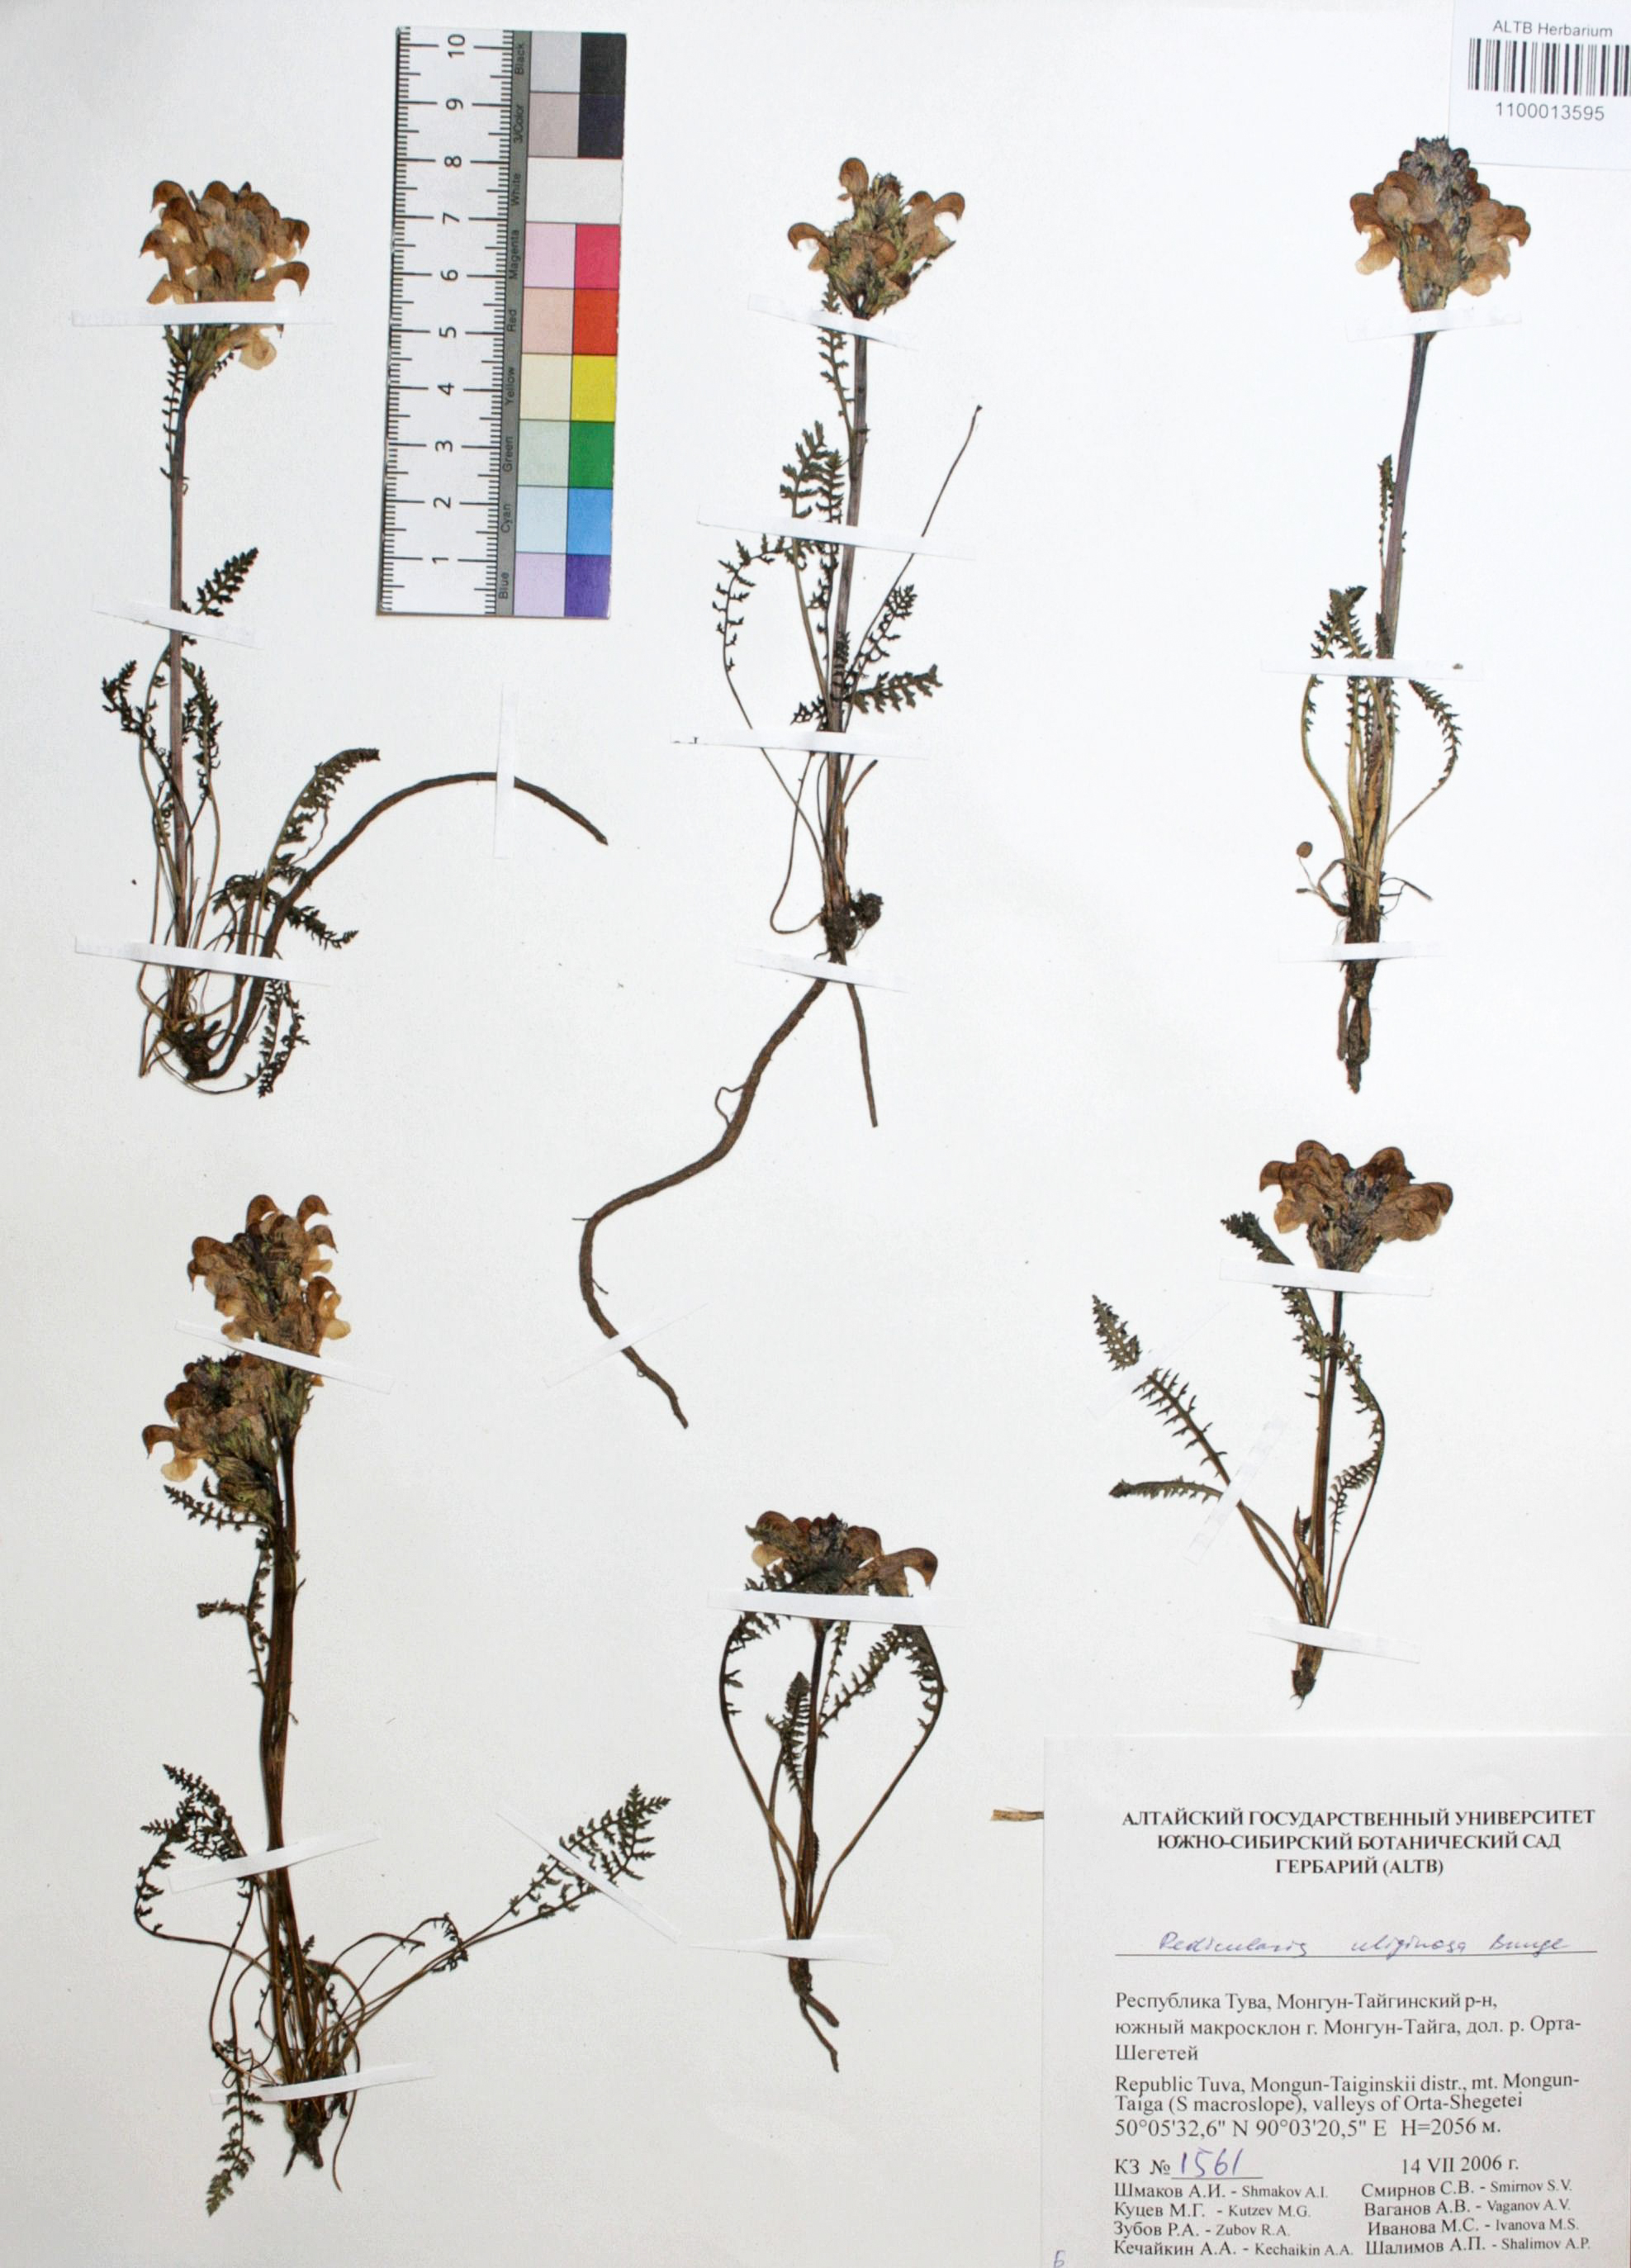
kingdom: Plantae
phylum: Tracheophyta
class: Magnoliopsida
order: Lamiales
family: Orobanchaceae
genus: Pedicularis
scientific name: Pedicularis uliginosa
